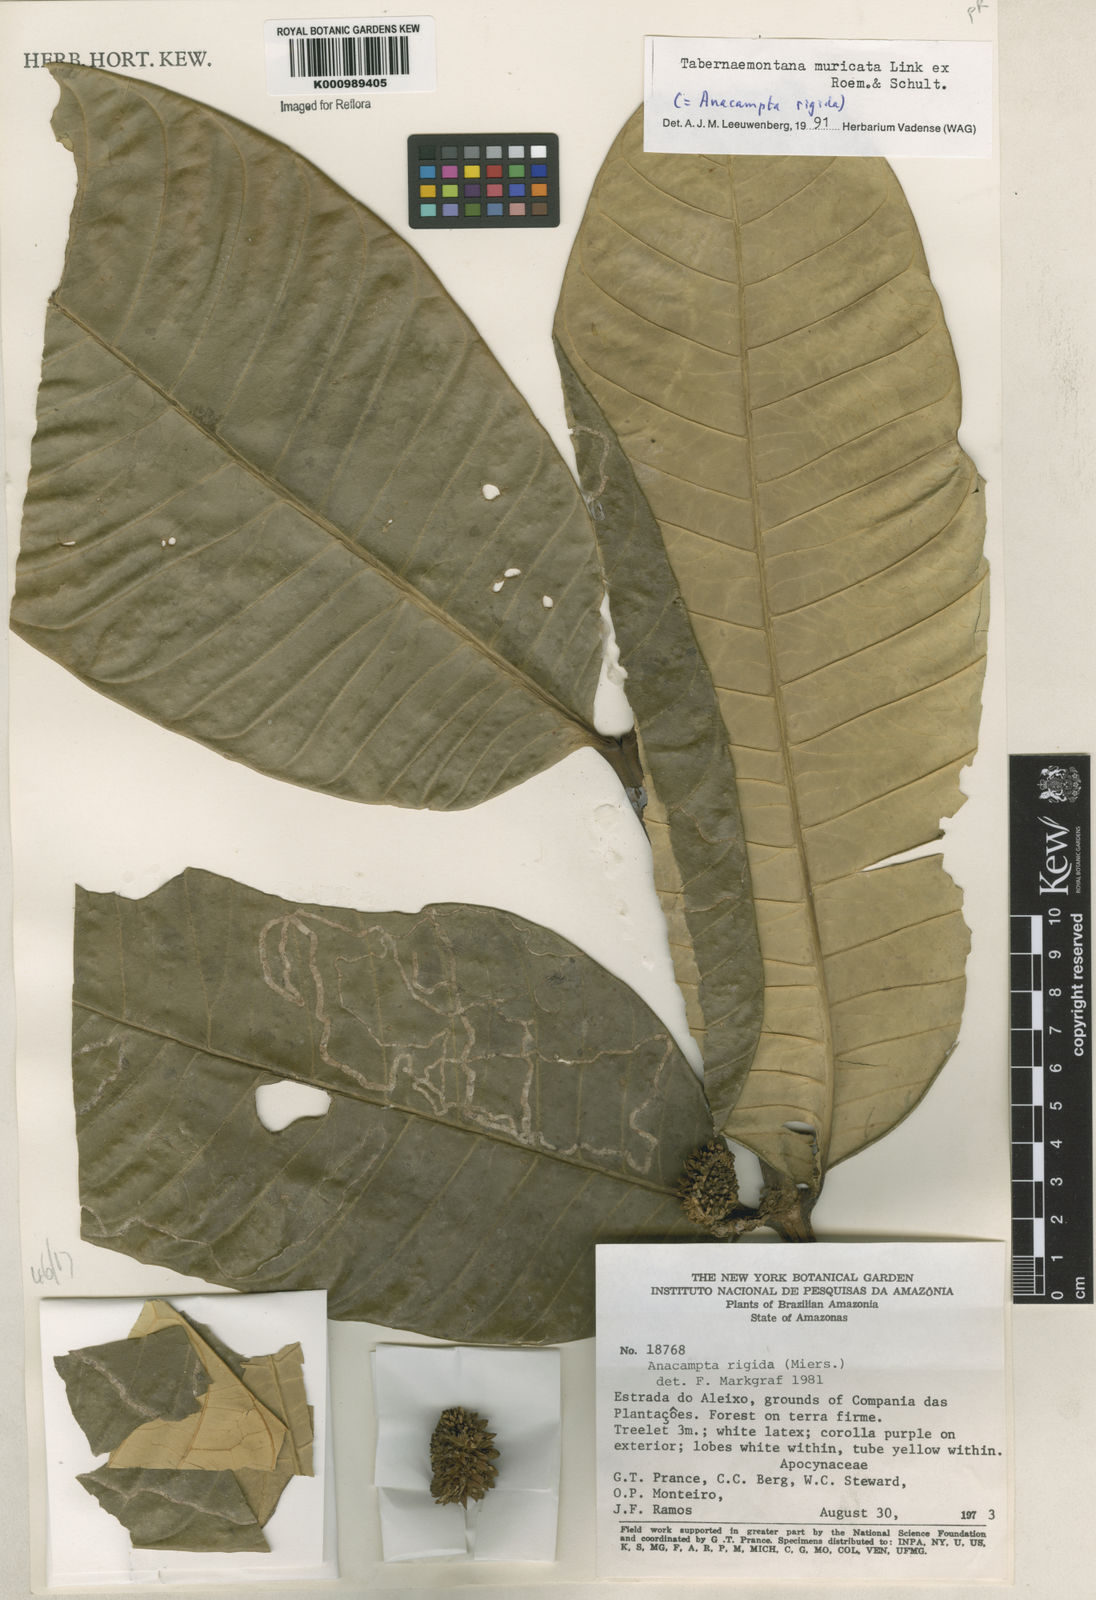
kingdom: Plantae
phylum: Tracheophyta
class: Magnoliopsida
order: Gentianales
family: Apocynaceae
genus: Tabernaemontana
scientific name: Tabernaemontana muricata
